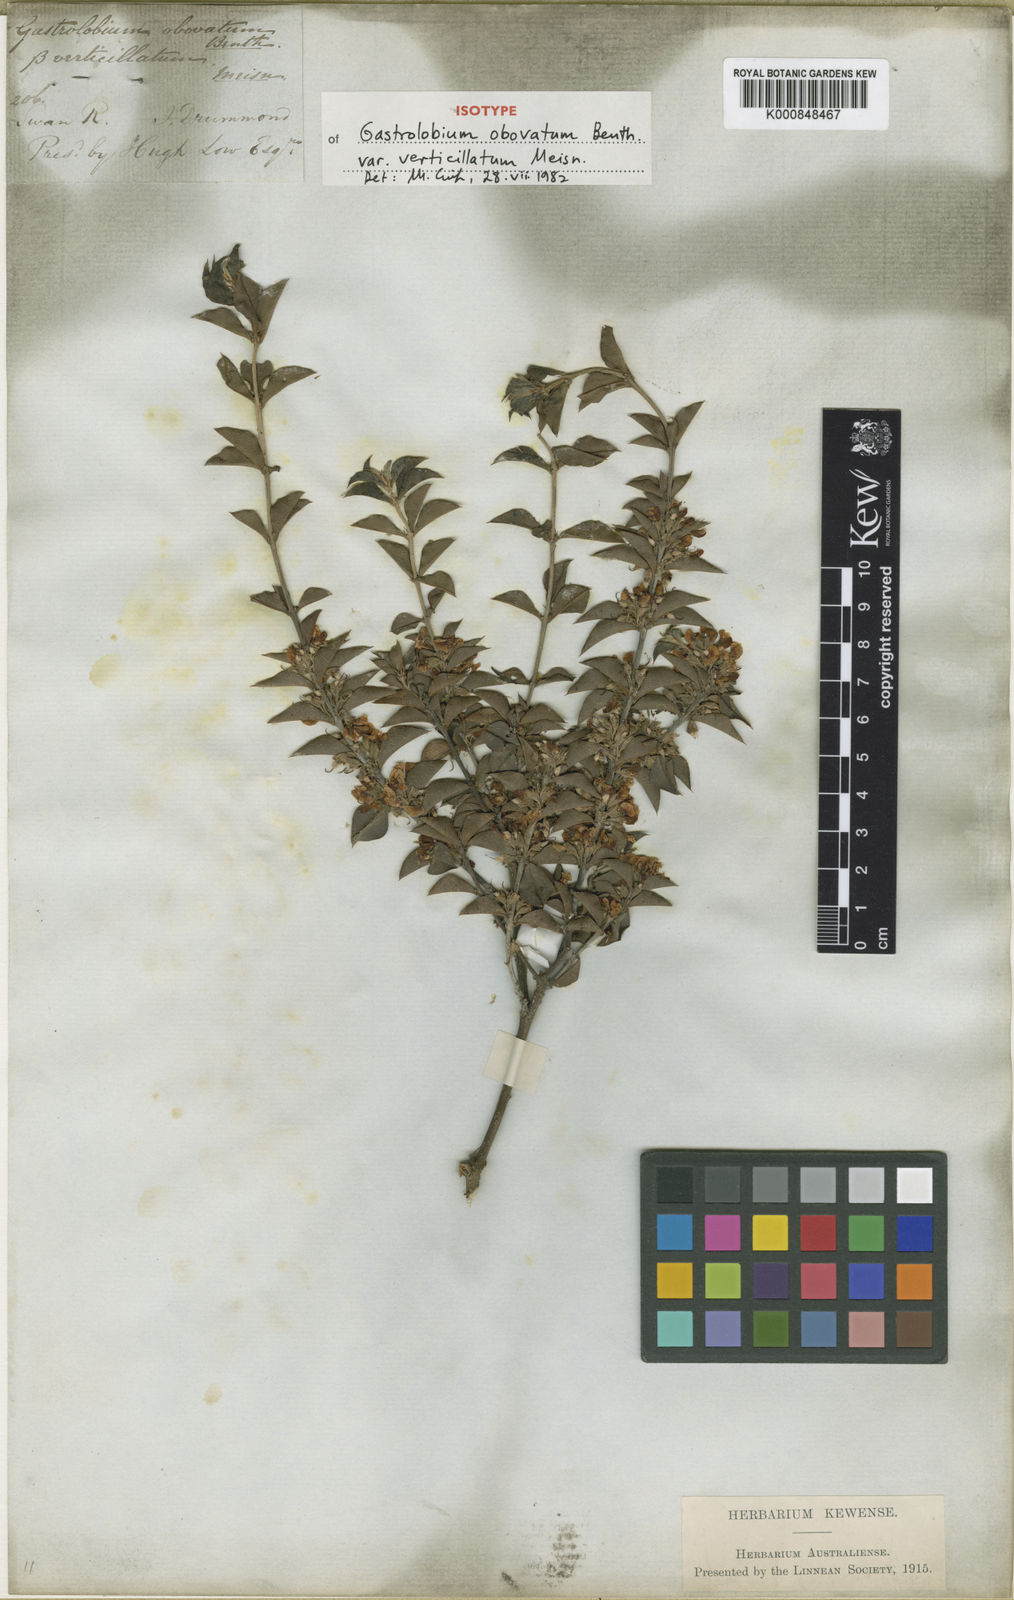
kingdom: Plantae
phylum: Tracheophyta
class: Magnoliopsida
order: Fabales
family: Fabaceae
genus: Gastrolobium
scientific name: Gastrolobium obovatum
